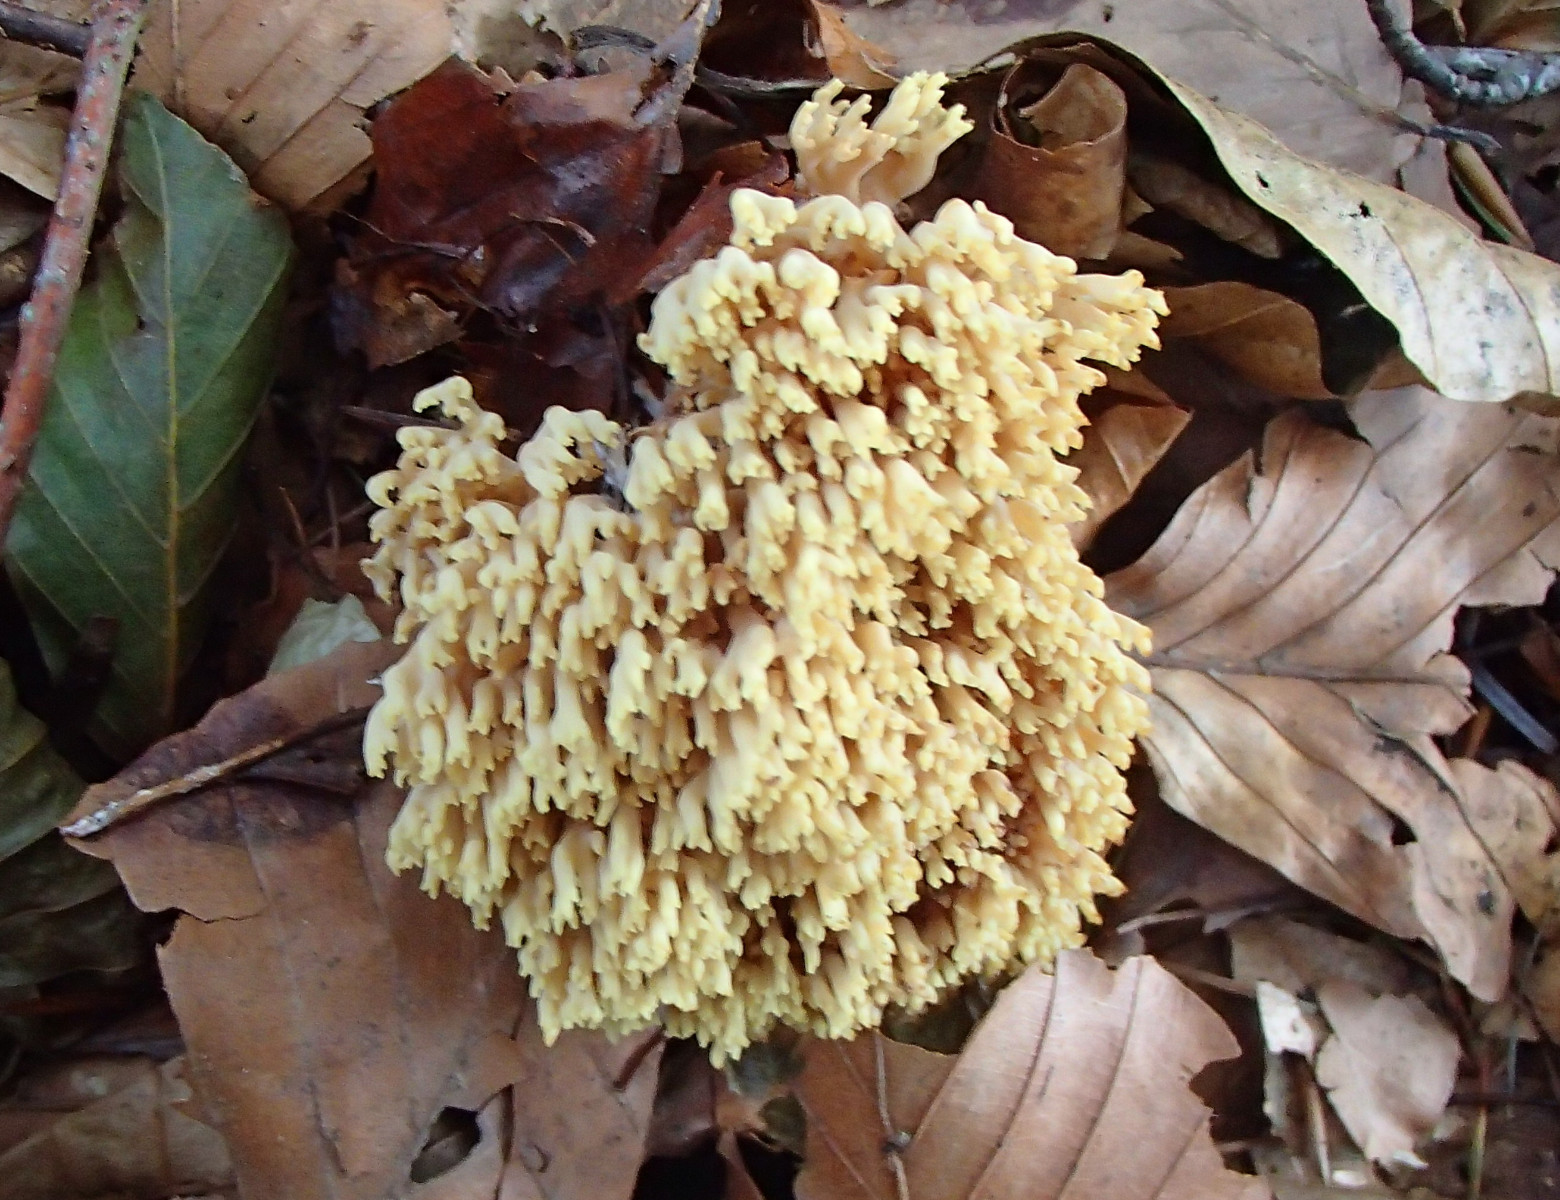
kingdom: Fungi
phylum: Basidiomycota
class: Agaricomycetes
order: Gomphales
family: Gomphaceae
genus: Ramaria
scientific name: Ramaria stricta
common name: rank koralsvamp
